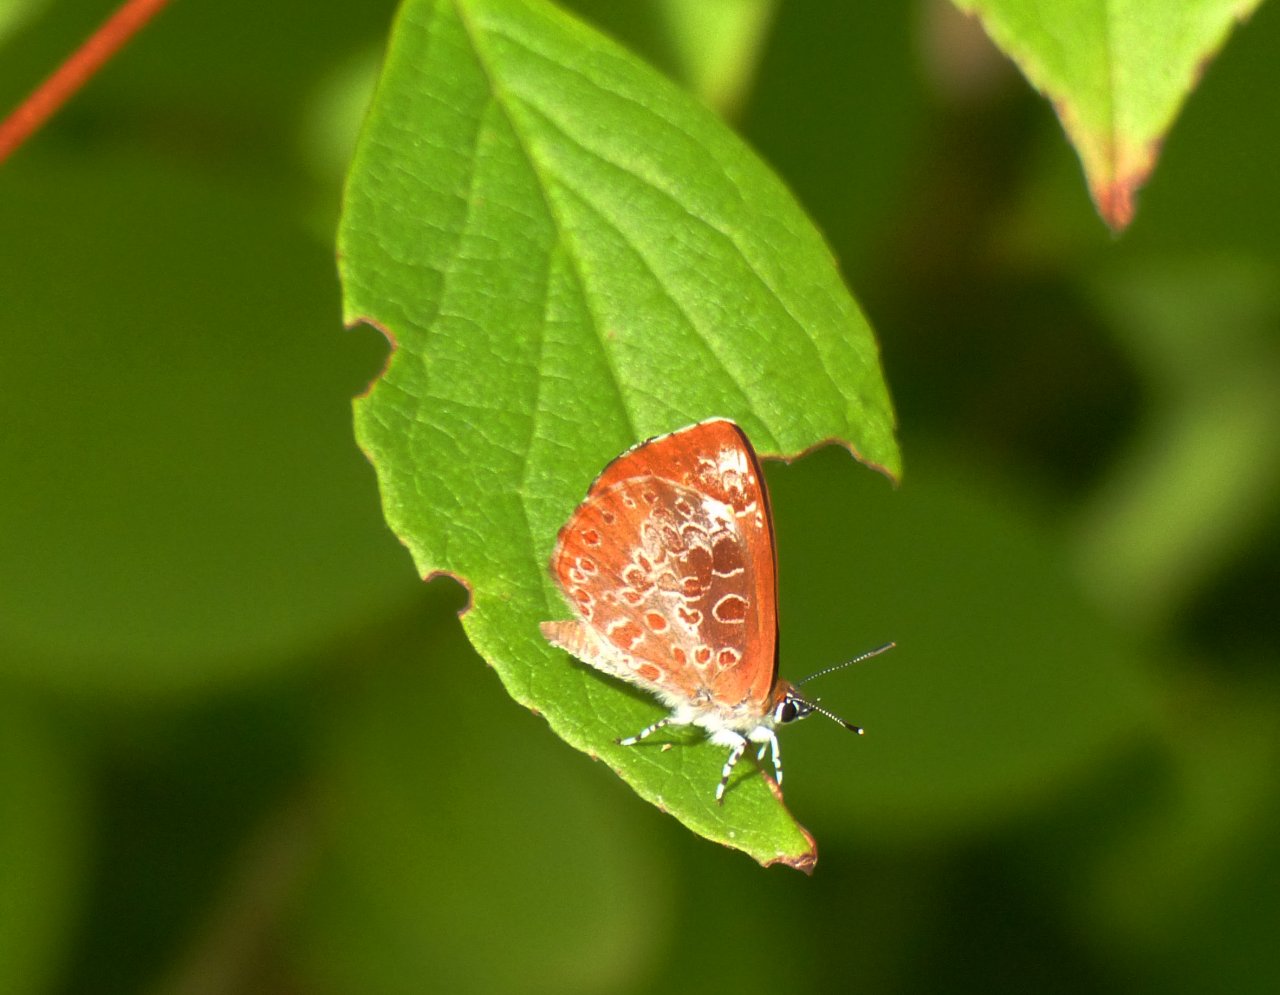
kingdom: Animalia
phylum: Arthropoda
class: Insecta
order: Lepidoptera
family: Lycaenidae
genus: Feniseca
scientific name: Feniseca tarquinius
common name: Harvester
